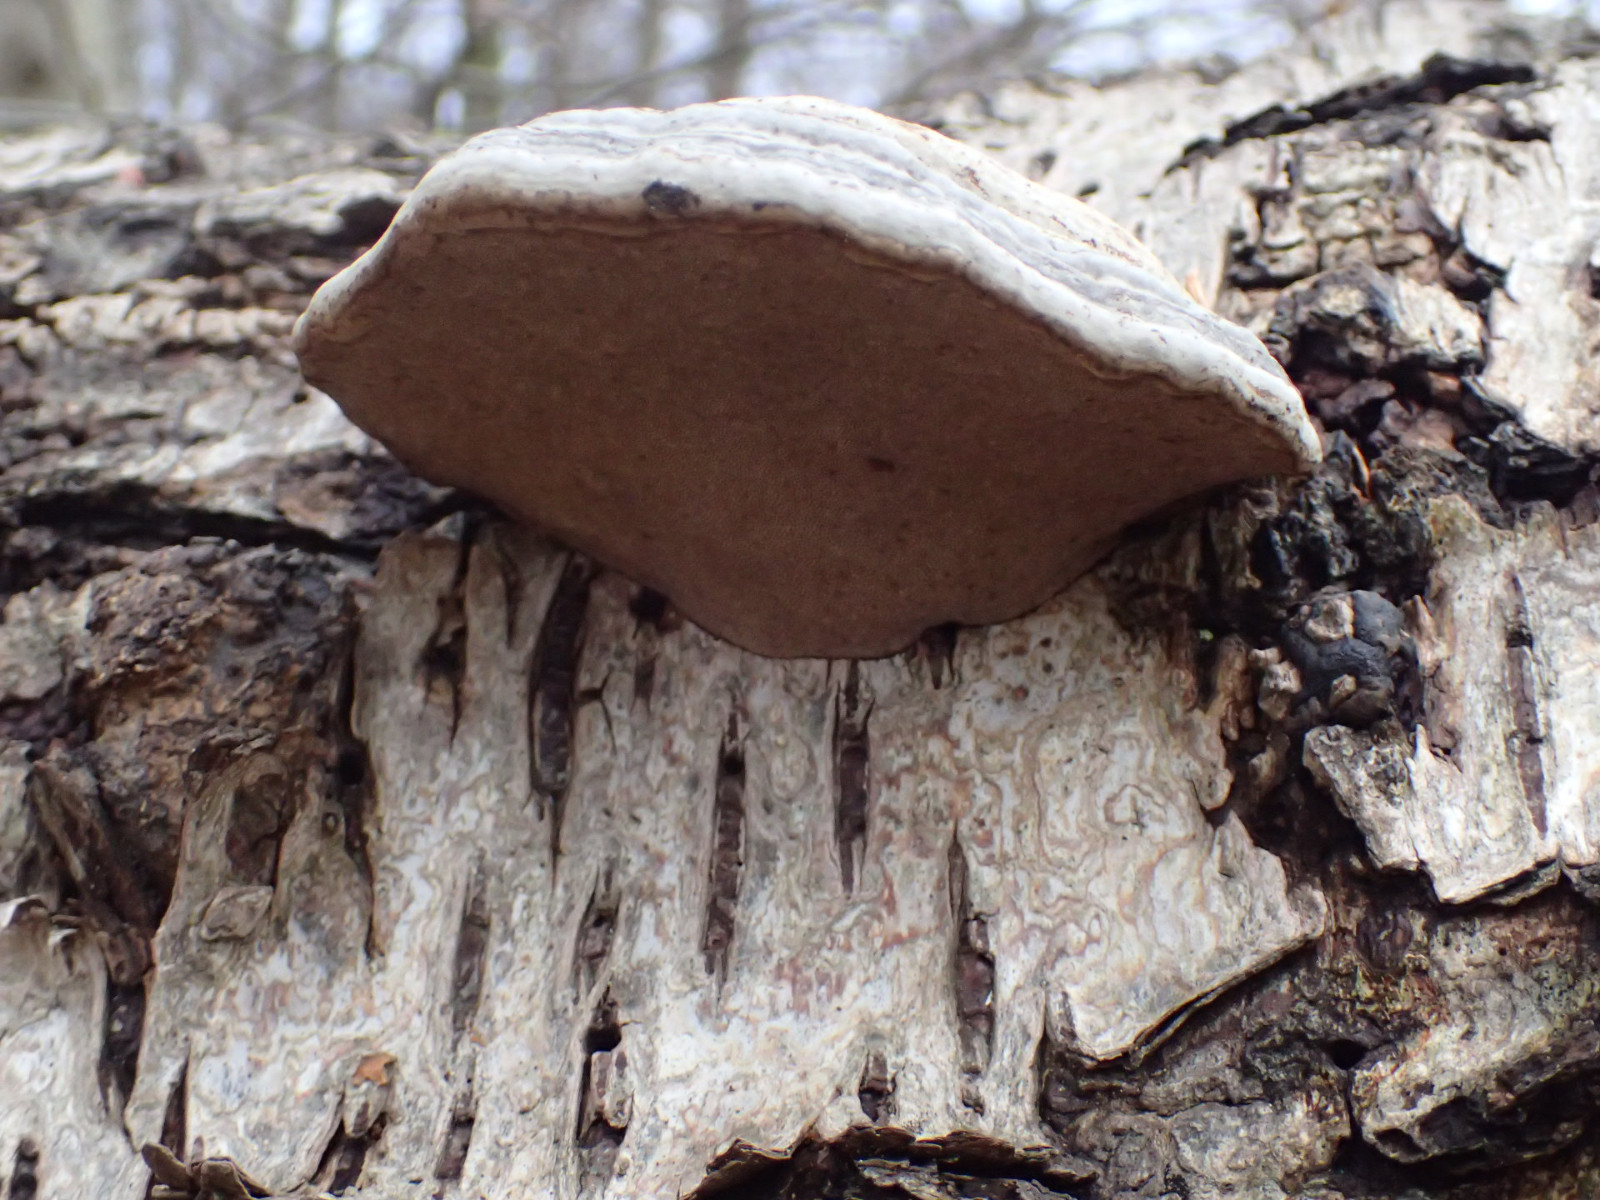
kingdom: Fungi
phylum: Basidiomycota
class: Agaricomycetes
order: Polyporales
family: Polyporaceae
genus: Fomes
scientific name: Fomes fomentarius
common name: tøndersvamp
